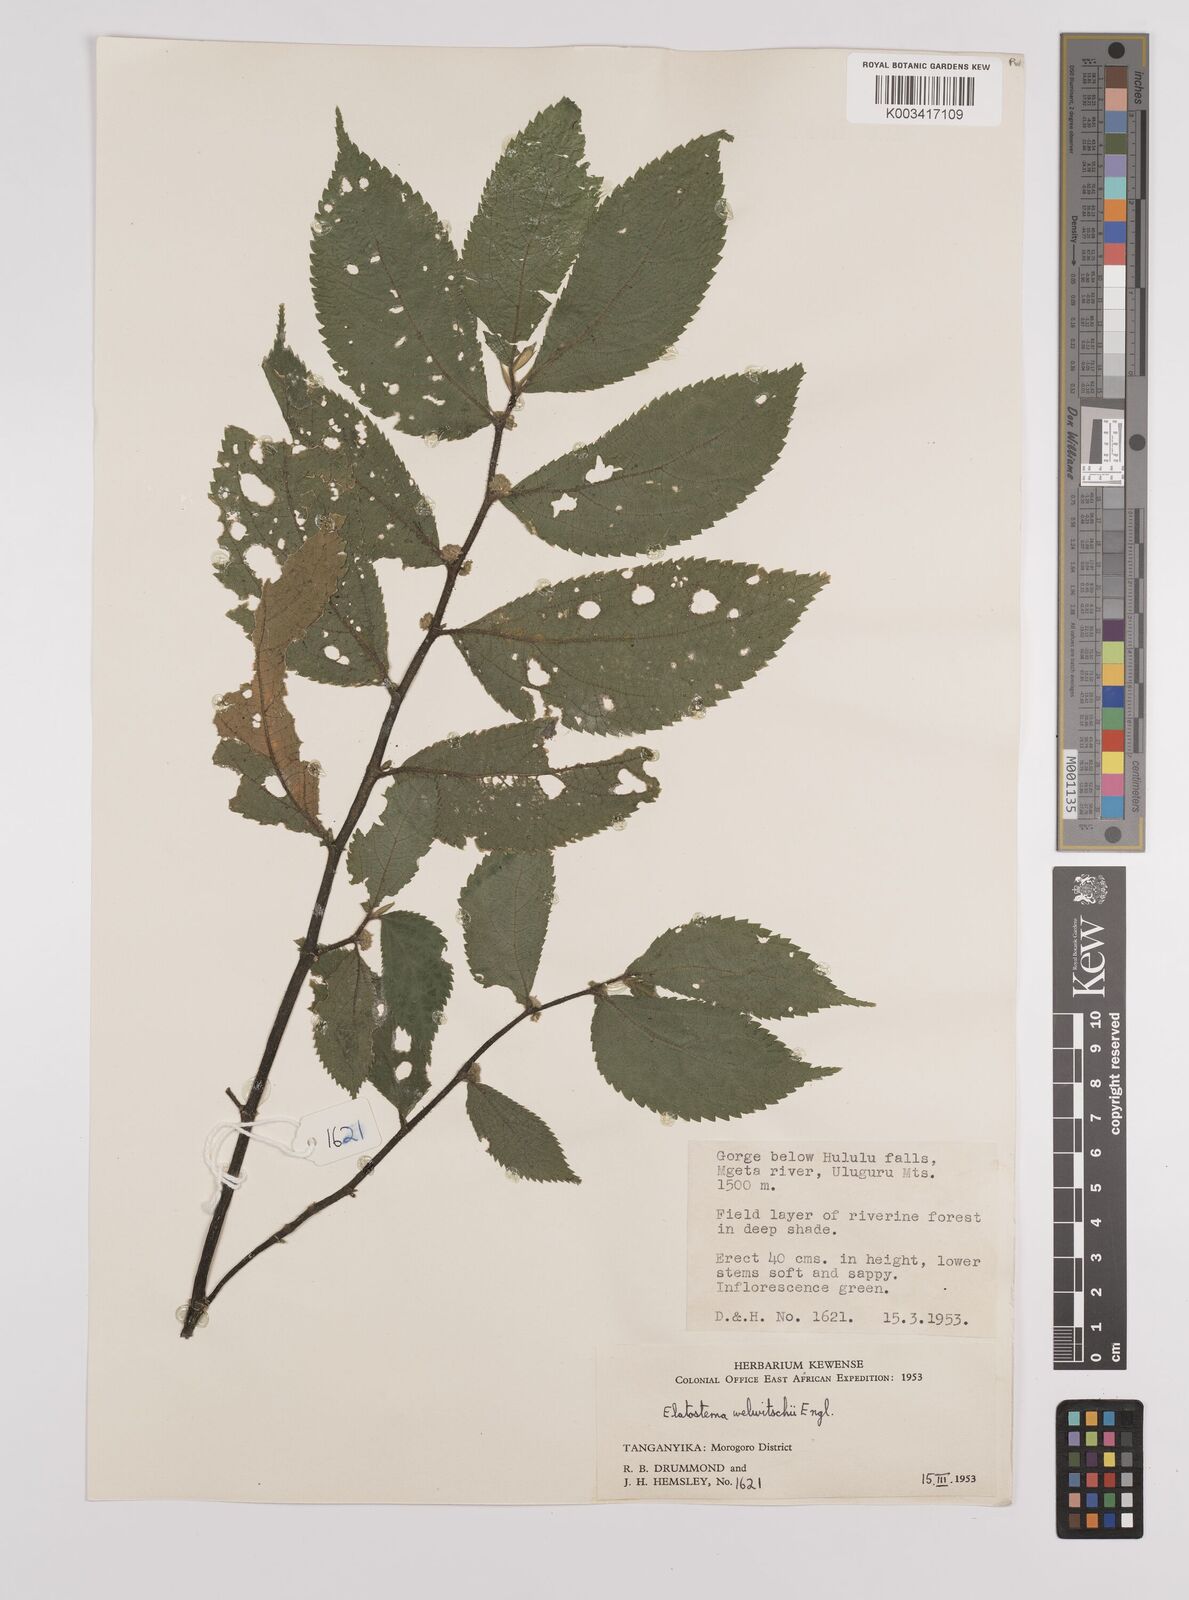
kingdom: Plantae
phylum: Tracheophyta
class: Magnoliopsida
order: Rosales
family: Urticaceae
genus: Elatostema
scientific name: Elatostema welwitschii
